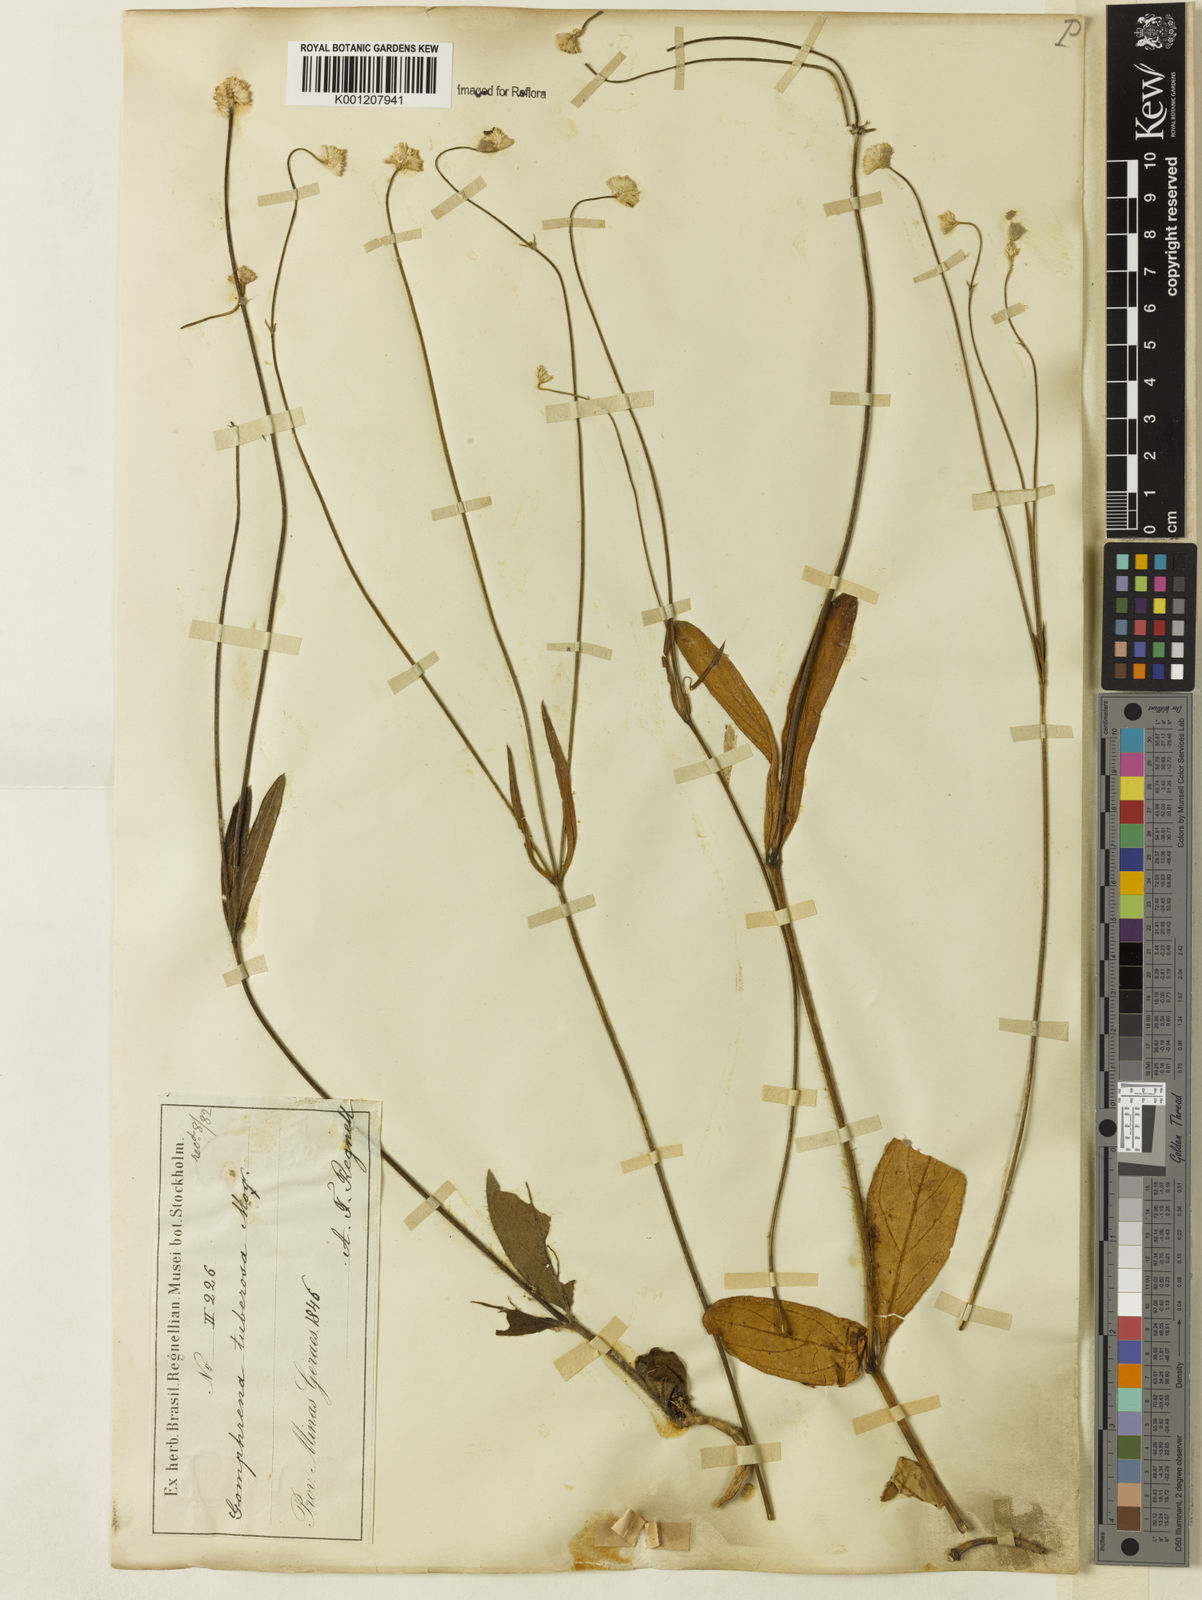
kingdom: Plantae
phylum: Tracheophyta
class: Magnoliopsida
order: Caryophyllales
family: Amaranthaceae
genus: Pfaffia
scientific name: Pfaffia tuberosa
